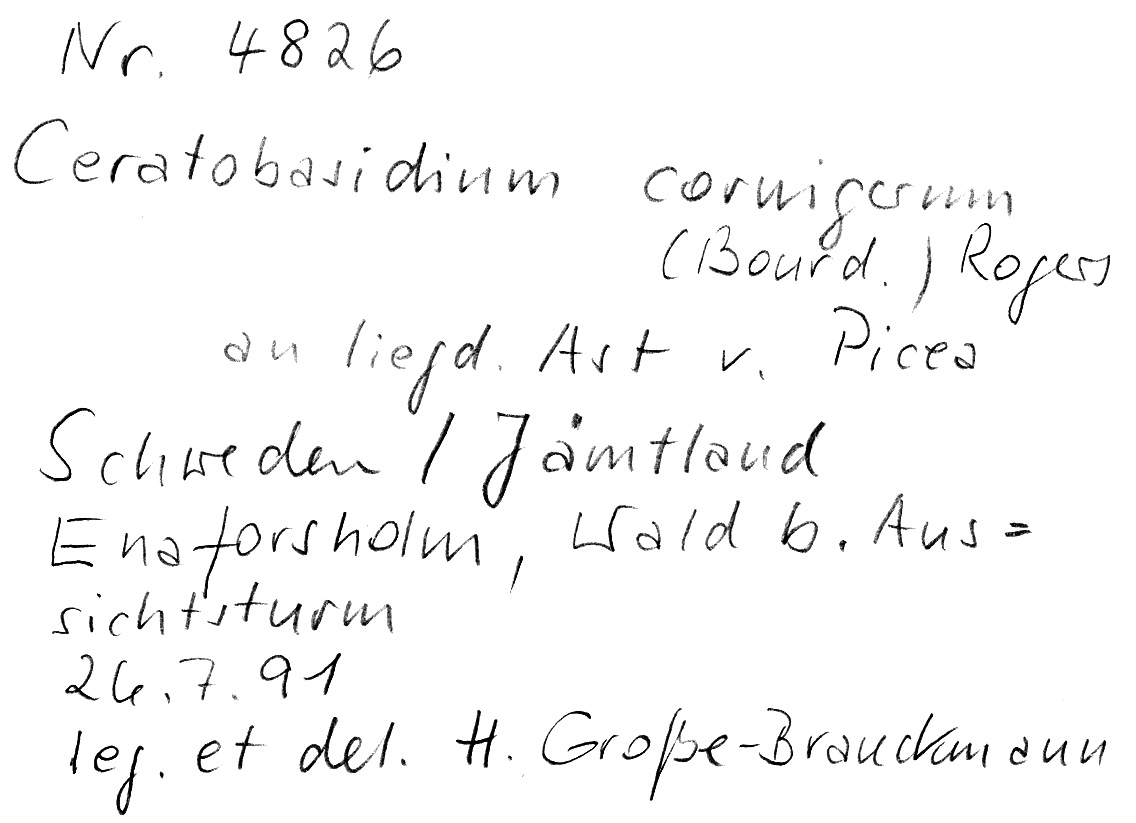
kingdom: Fungi
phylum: Basidiomycota
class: Agaricomycetes
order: Cantharellales
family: Ceratobasidiaceae
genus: Ceratobasidium
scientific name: Ceratobasidium cornigerum
